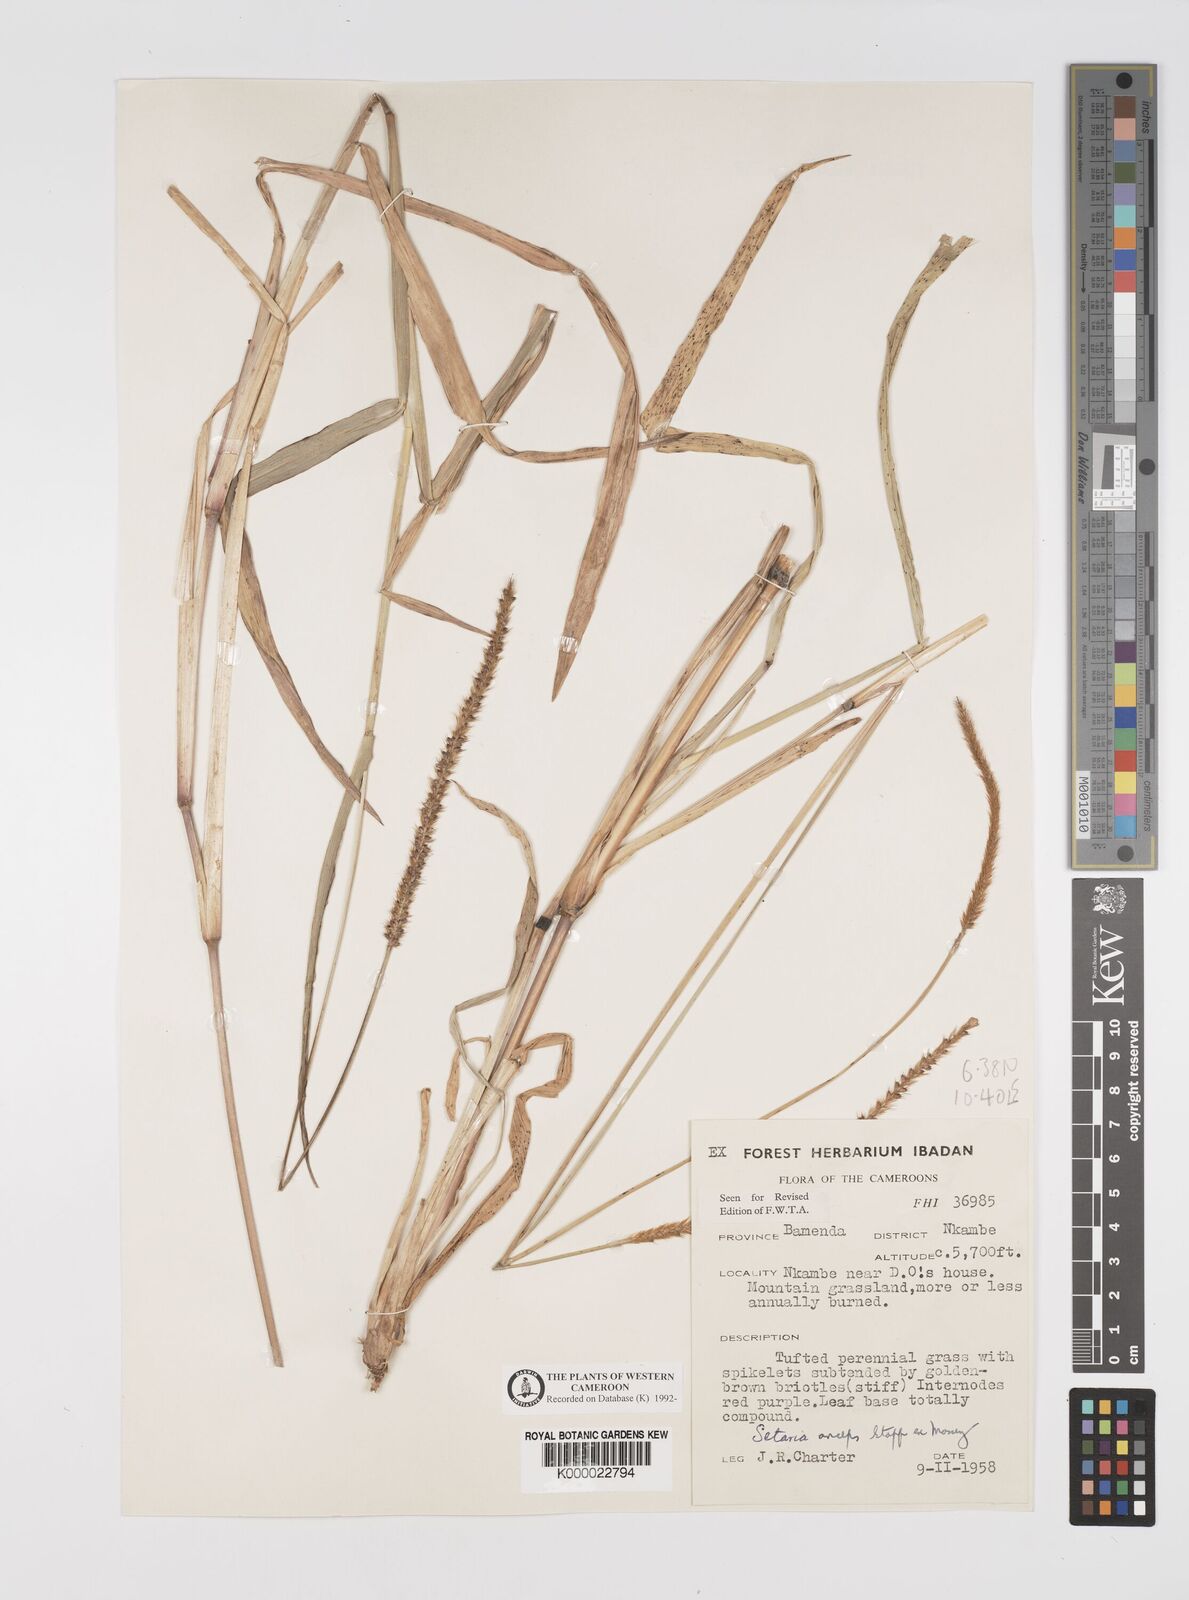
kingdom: Plantae
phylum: Tracheophyta
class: Liliopsida
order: Poales
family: Poaceae
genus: Setaria
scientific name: Setaria sphacelata
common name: African bristlegrass
